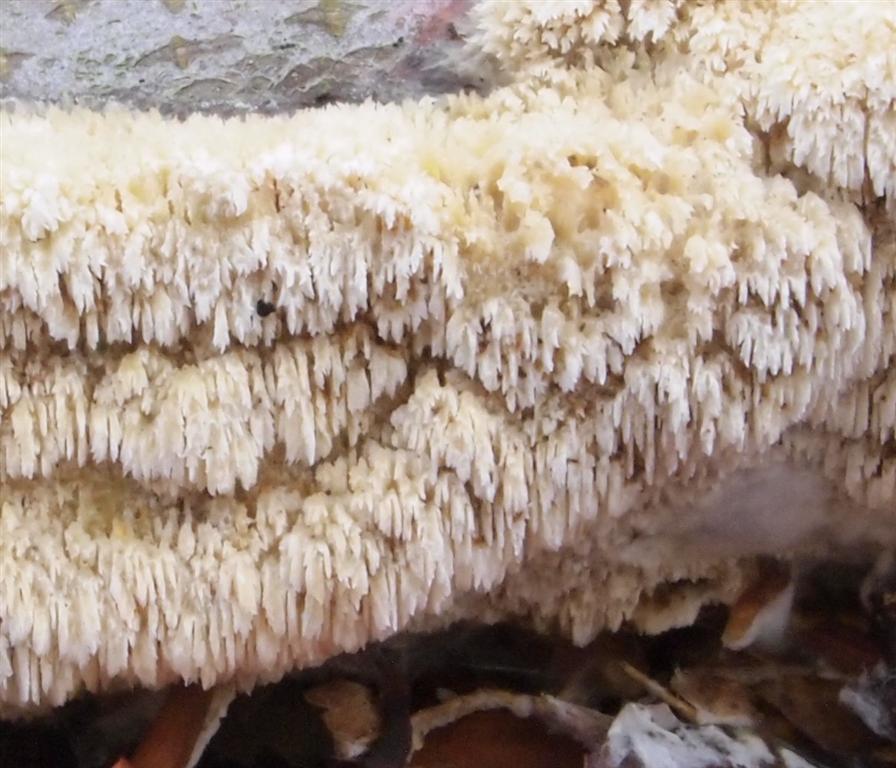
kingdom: Fungi
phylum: Basidiomycota
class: Agaricomycetes
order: Hymenochaetales
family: Schizoporaceae
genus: Schizopora
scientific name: Schizopora paradoxa
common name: hvid tandsvamp
